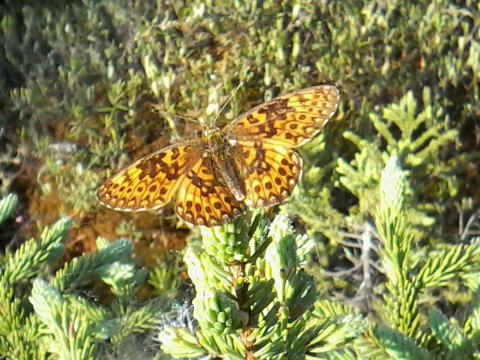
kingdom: Animalia
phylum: Arthropoda
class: Insecta
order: Lepidoptera
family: Nymphalidae
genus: Boloria
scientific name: Boloria eunomia
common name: Bog Fritillary
